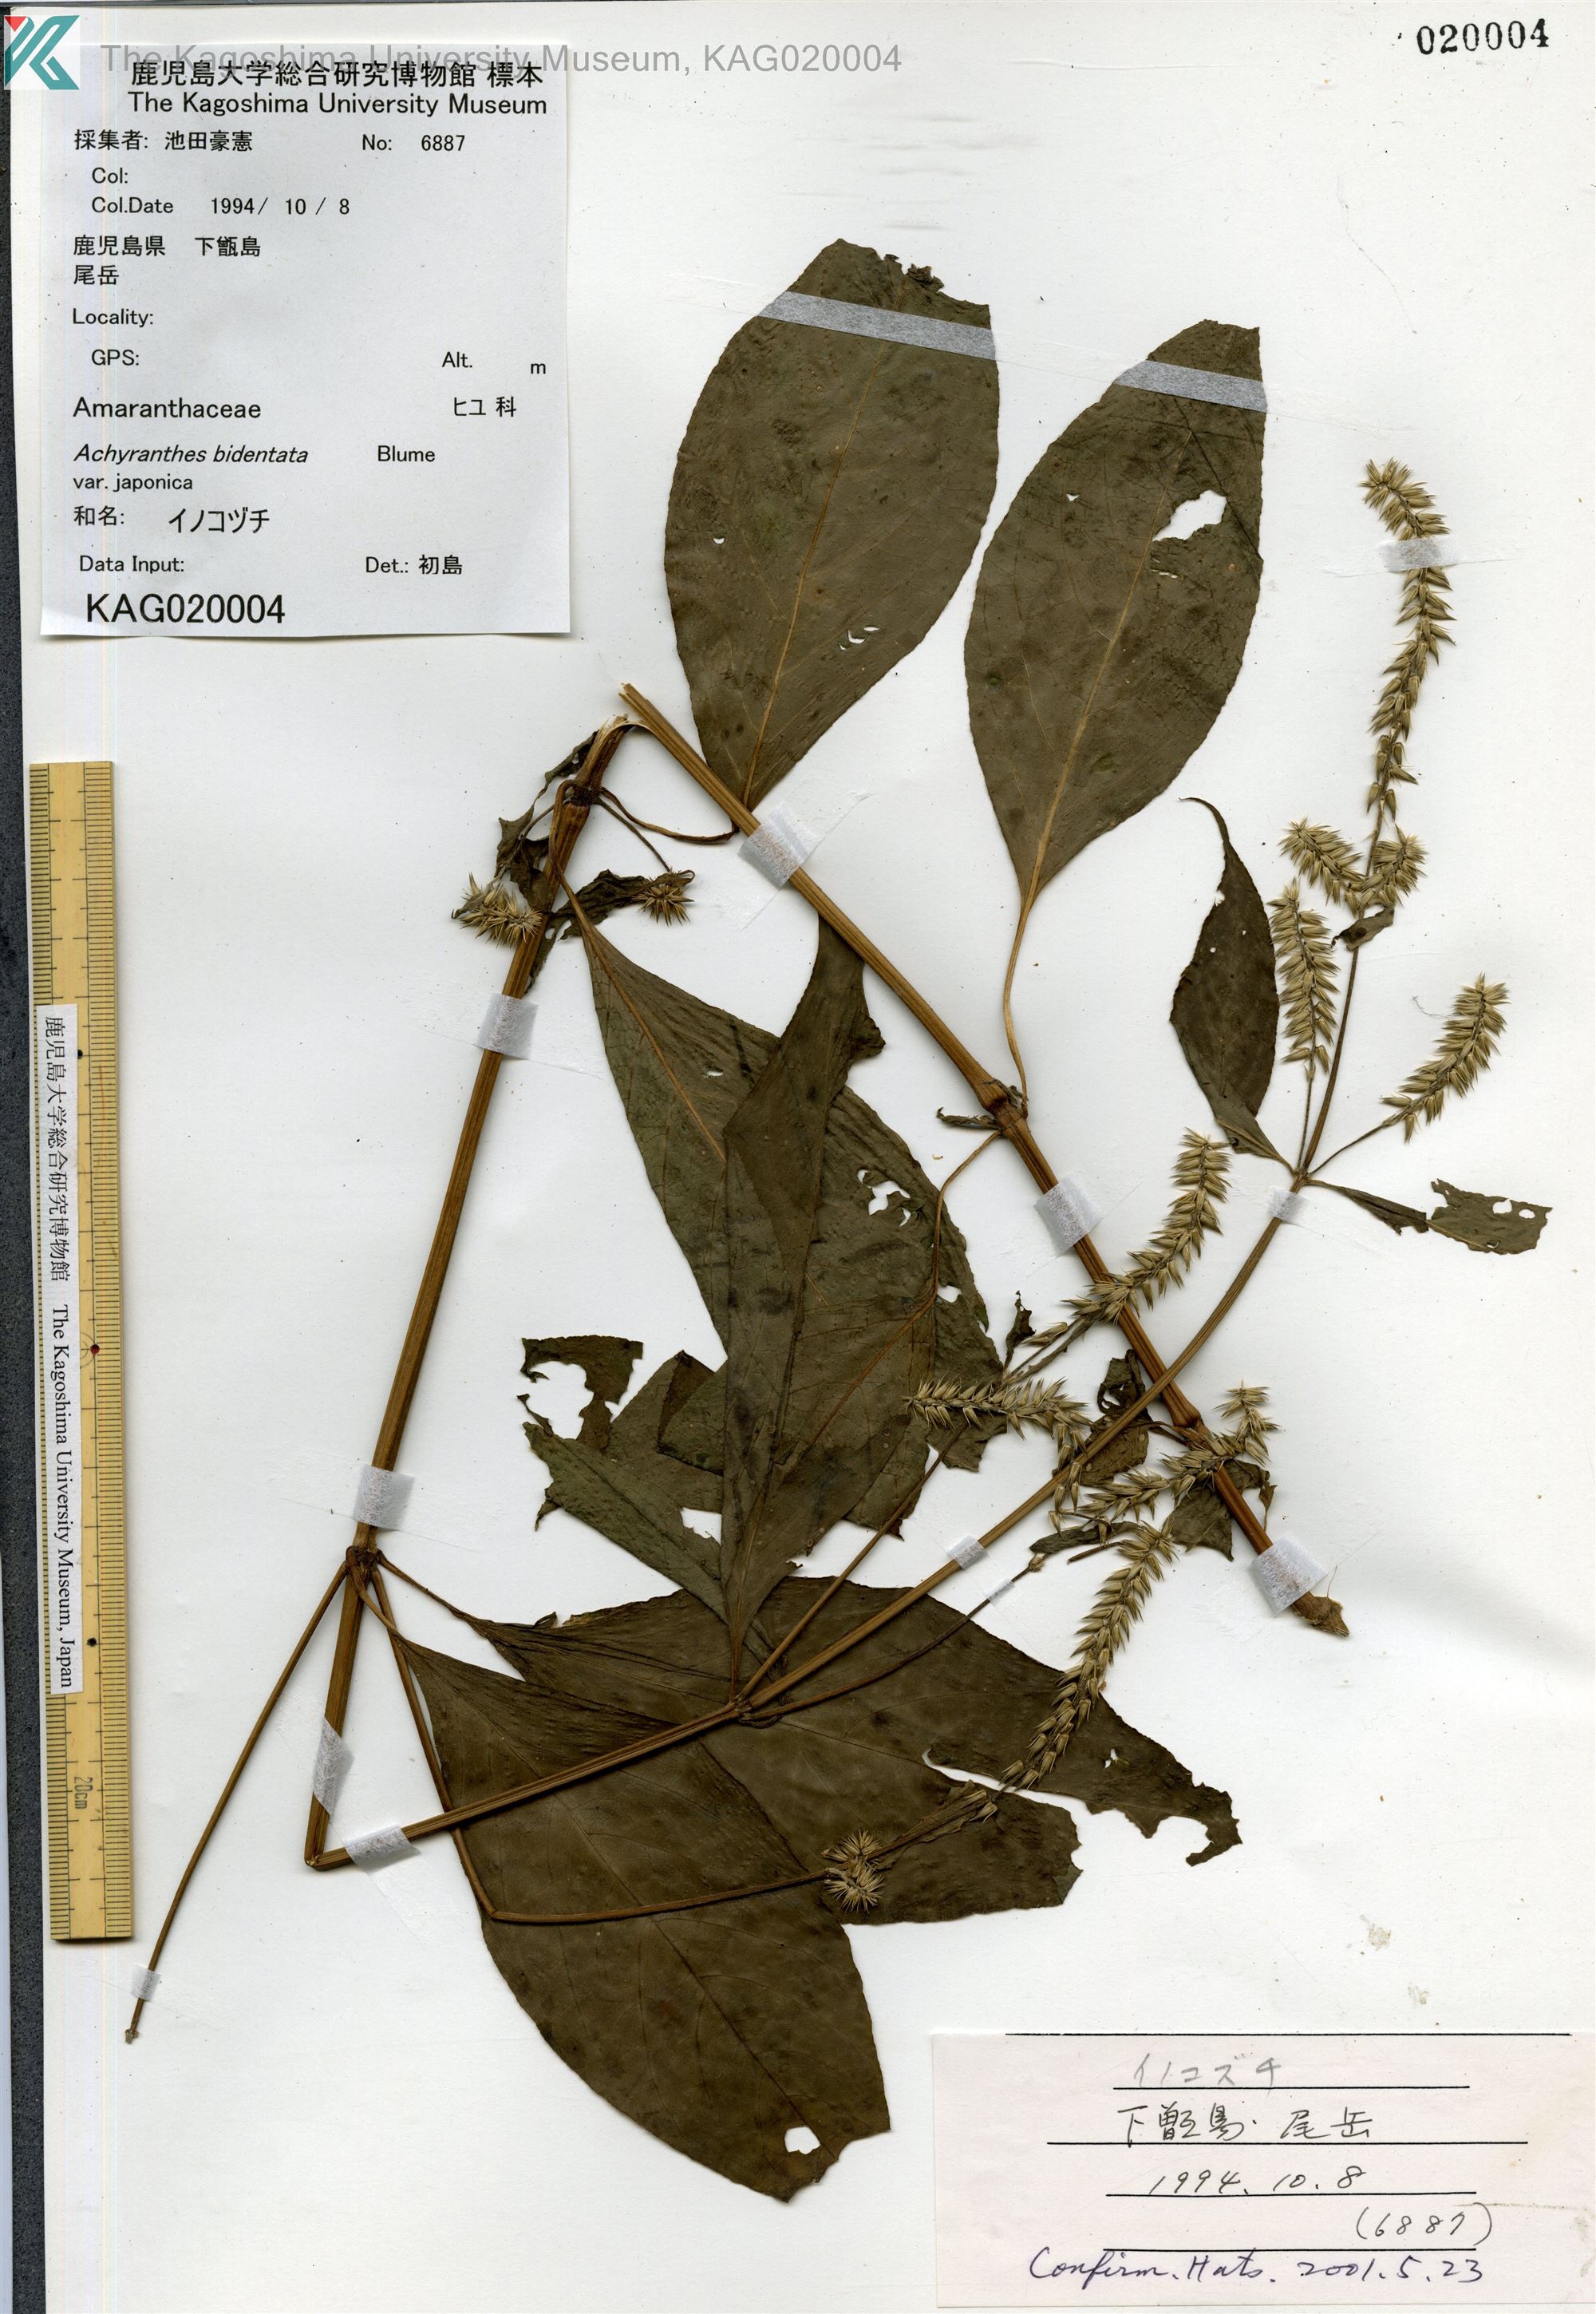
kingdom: Plantae
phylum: Tracheophyta
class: Magnoliopsida
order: Caryophyllales
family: Amaranthaceae
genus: Achyranthes
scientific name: Achyranthes bidentata
